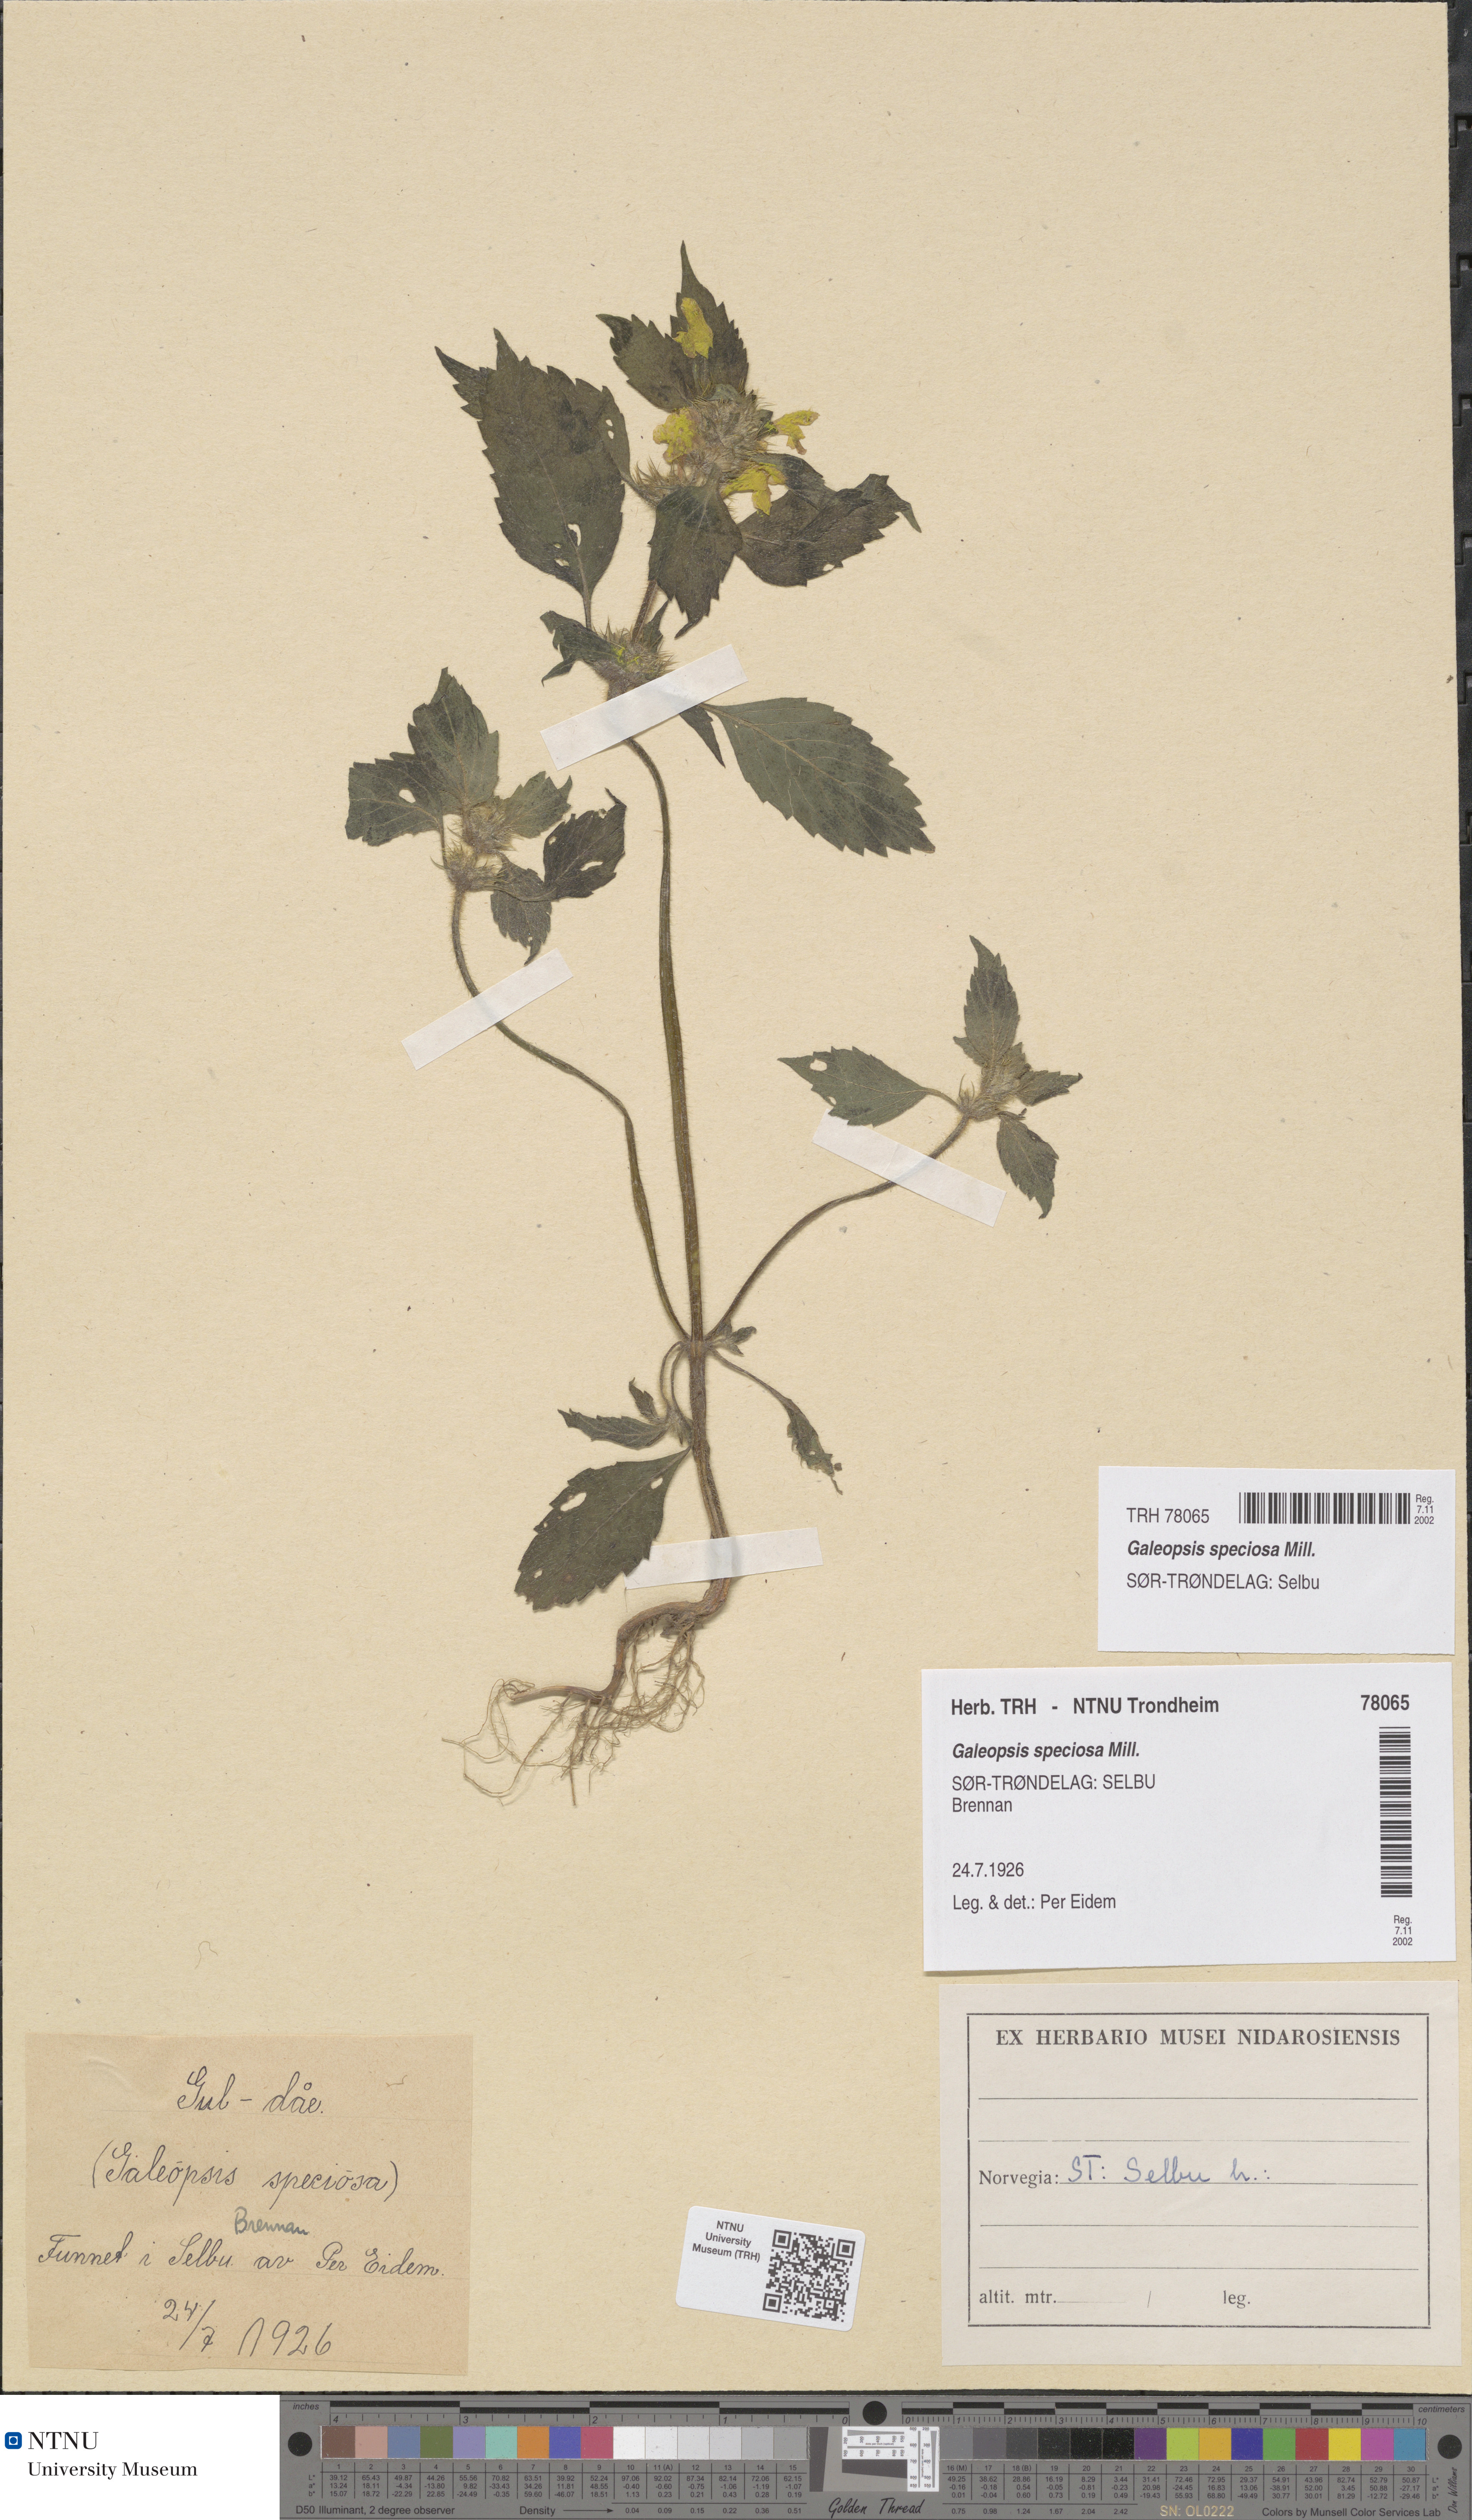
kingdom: Plantae
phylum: Tracheophyta
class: Magnoliopsida
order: Lamiales
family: Lamiaceae
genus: Galeopsis
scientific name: Galeopsis speciosa
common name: Large-flowered hemp-nettle
